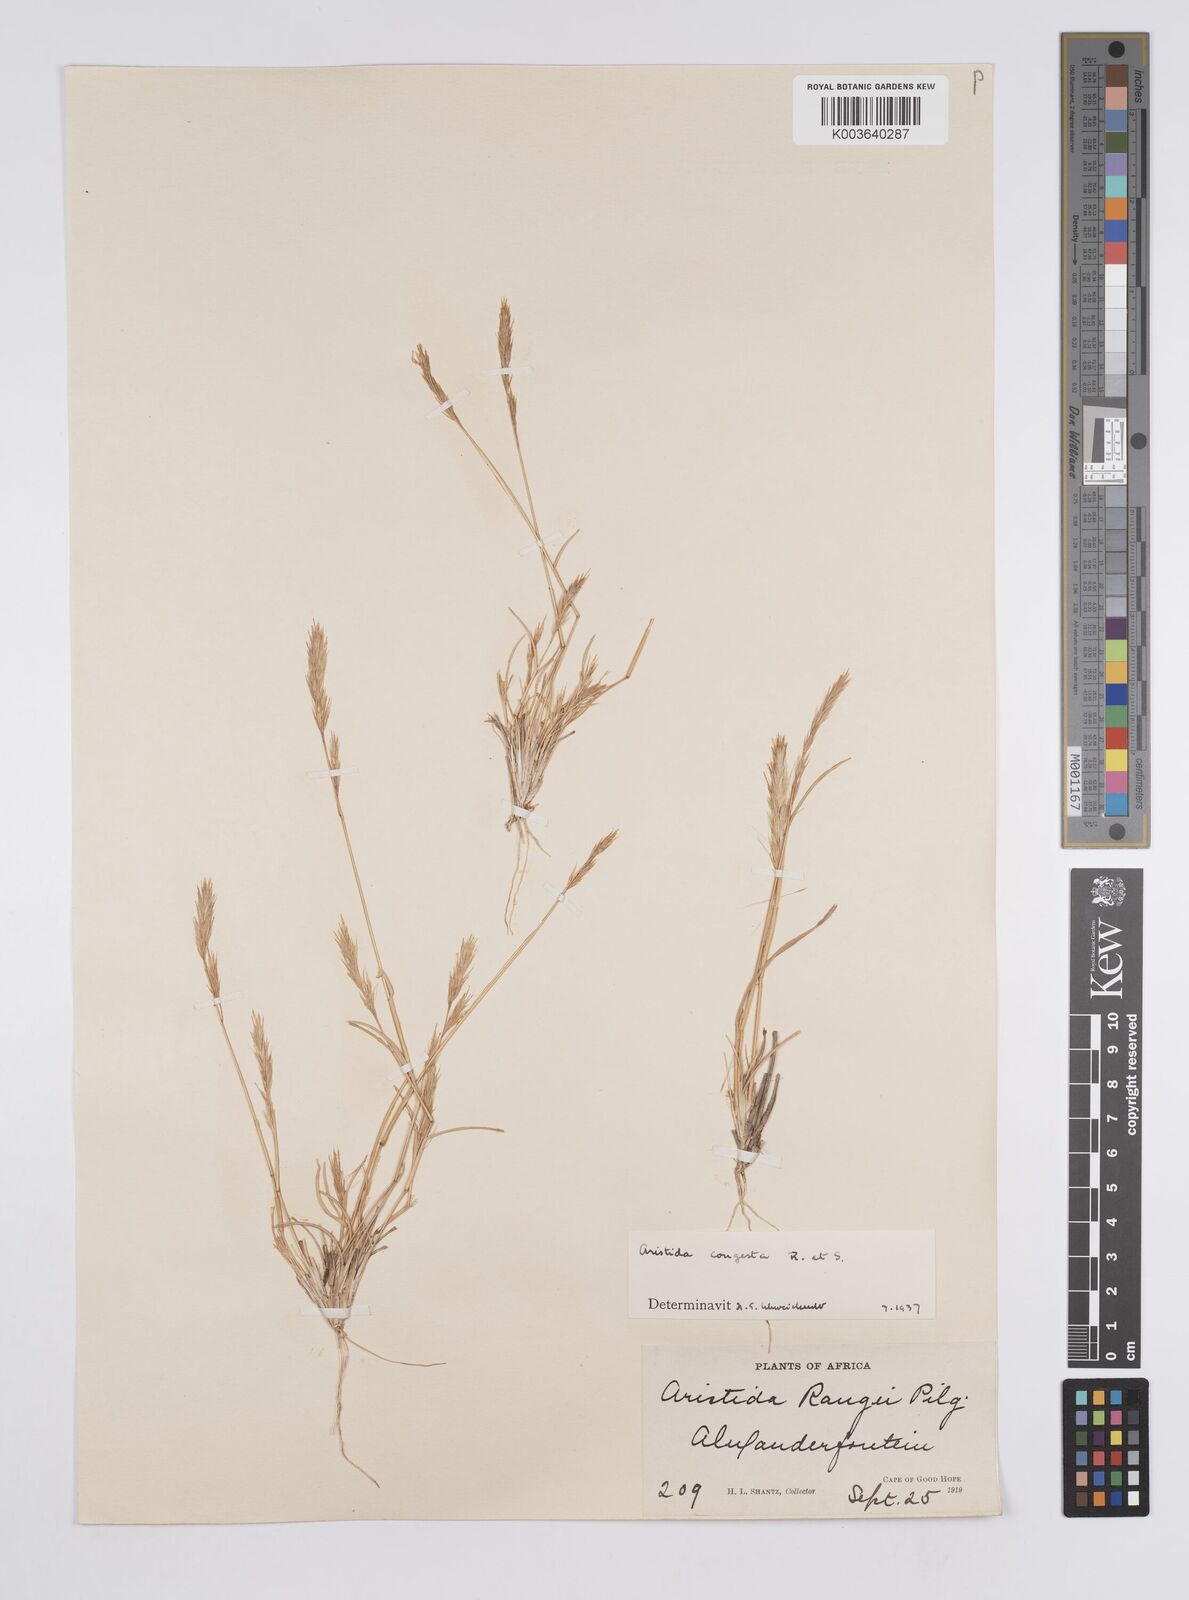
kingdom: Plantae
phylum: Tracheophyta
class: Liliopsida
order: Poales
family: Poaceae
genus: Aristida
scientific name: Aristida congesta
